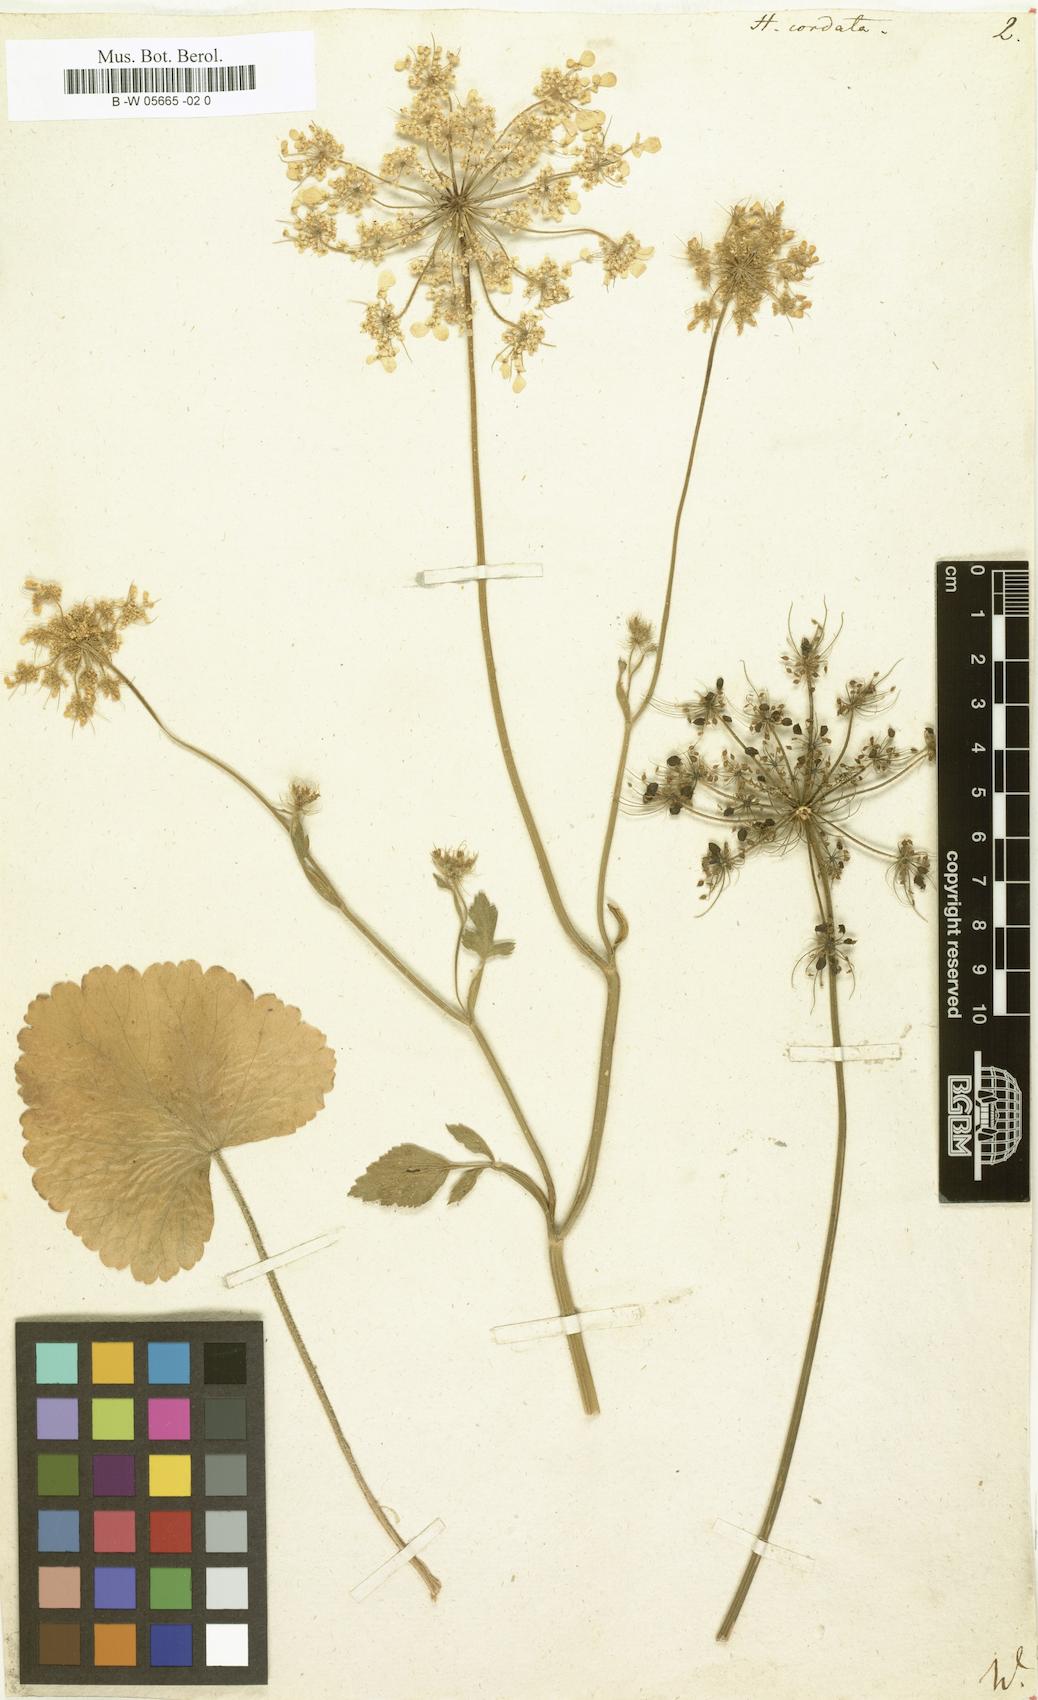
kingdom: Plantae
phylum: Tracheophyta
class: Magnoliopsida
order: Apiales
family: Apiaceae
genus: Ainsworthia
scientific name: Ainsworthia cordata
